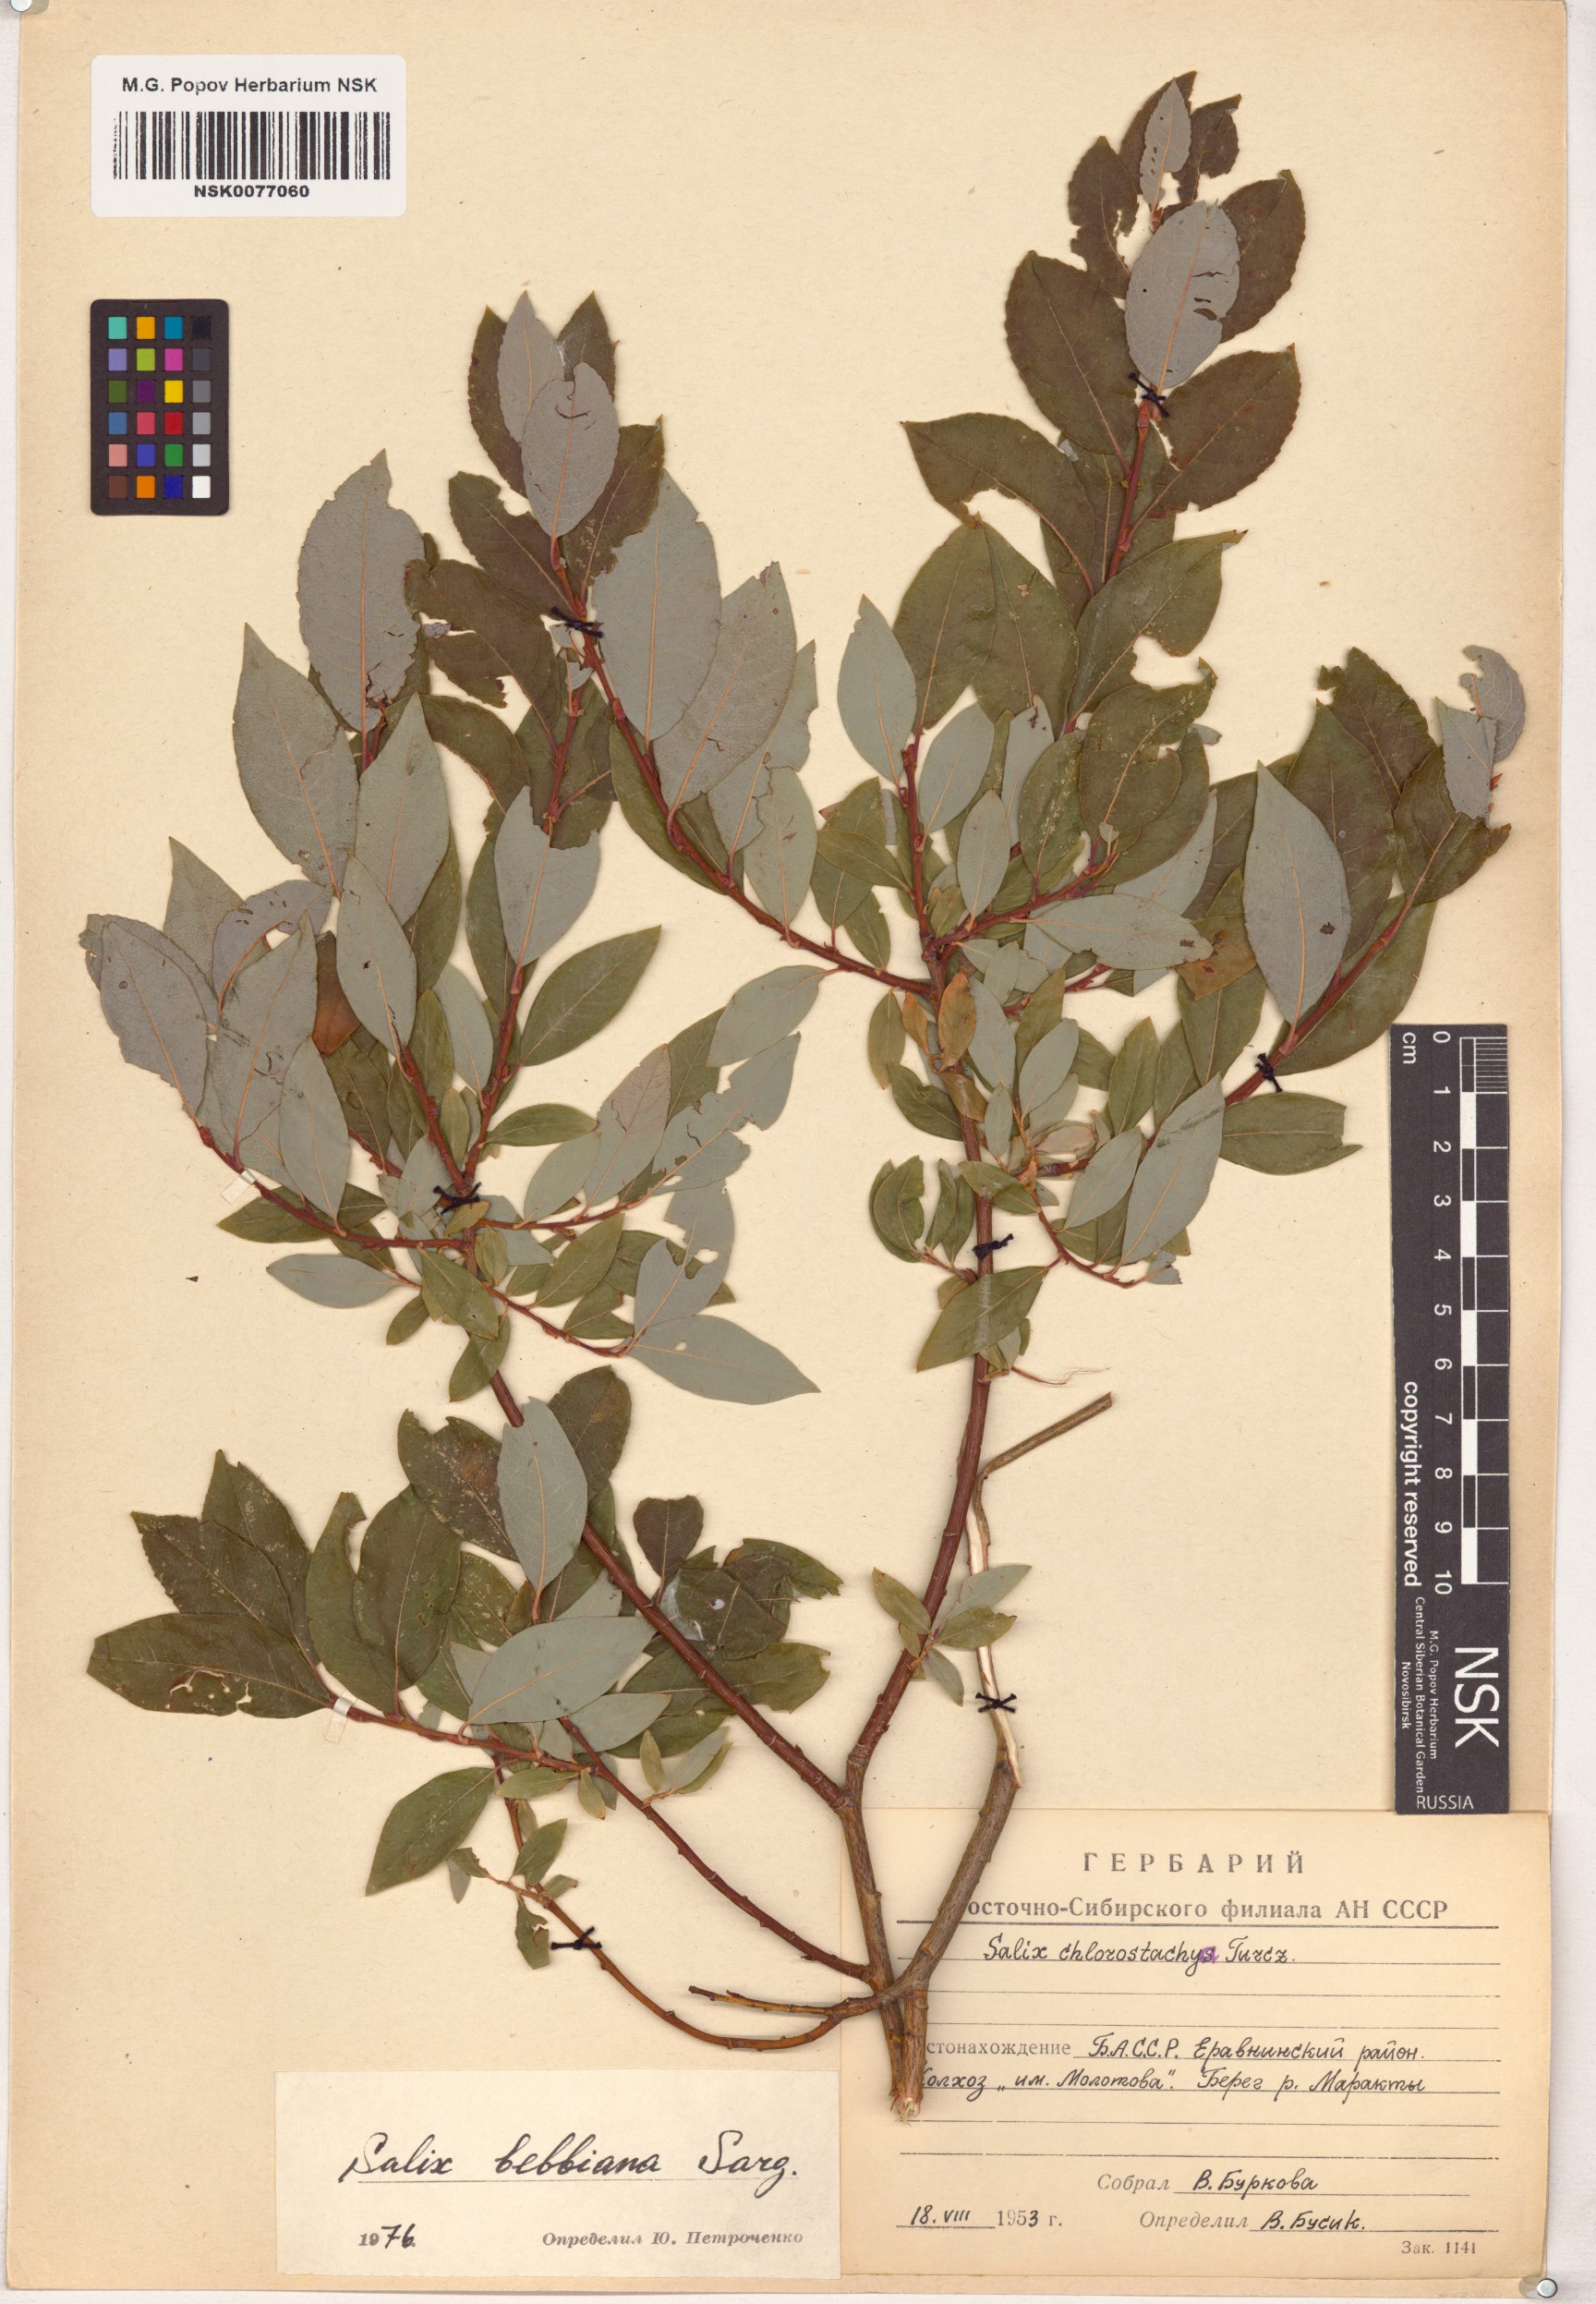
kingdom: Plantae
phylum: Tracheophyta
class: Magnoliopsida
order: Malpighiales
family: Salicaceae
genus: Salix
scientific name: Salix bebbiana
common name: Bebb's willow
